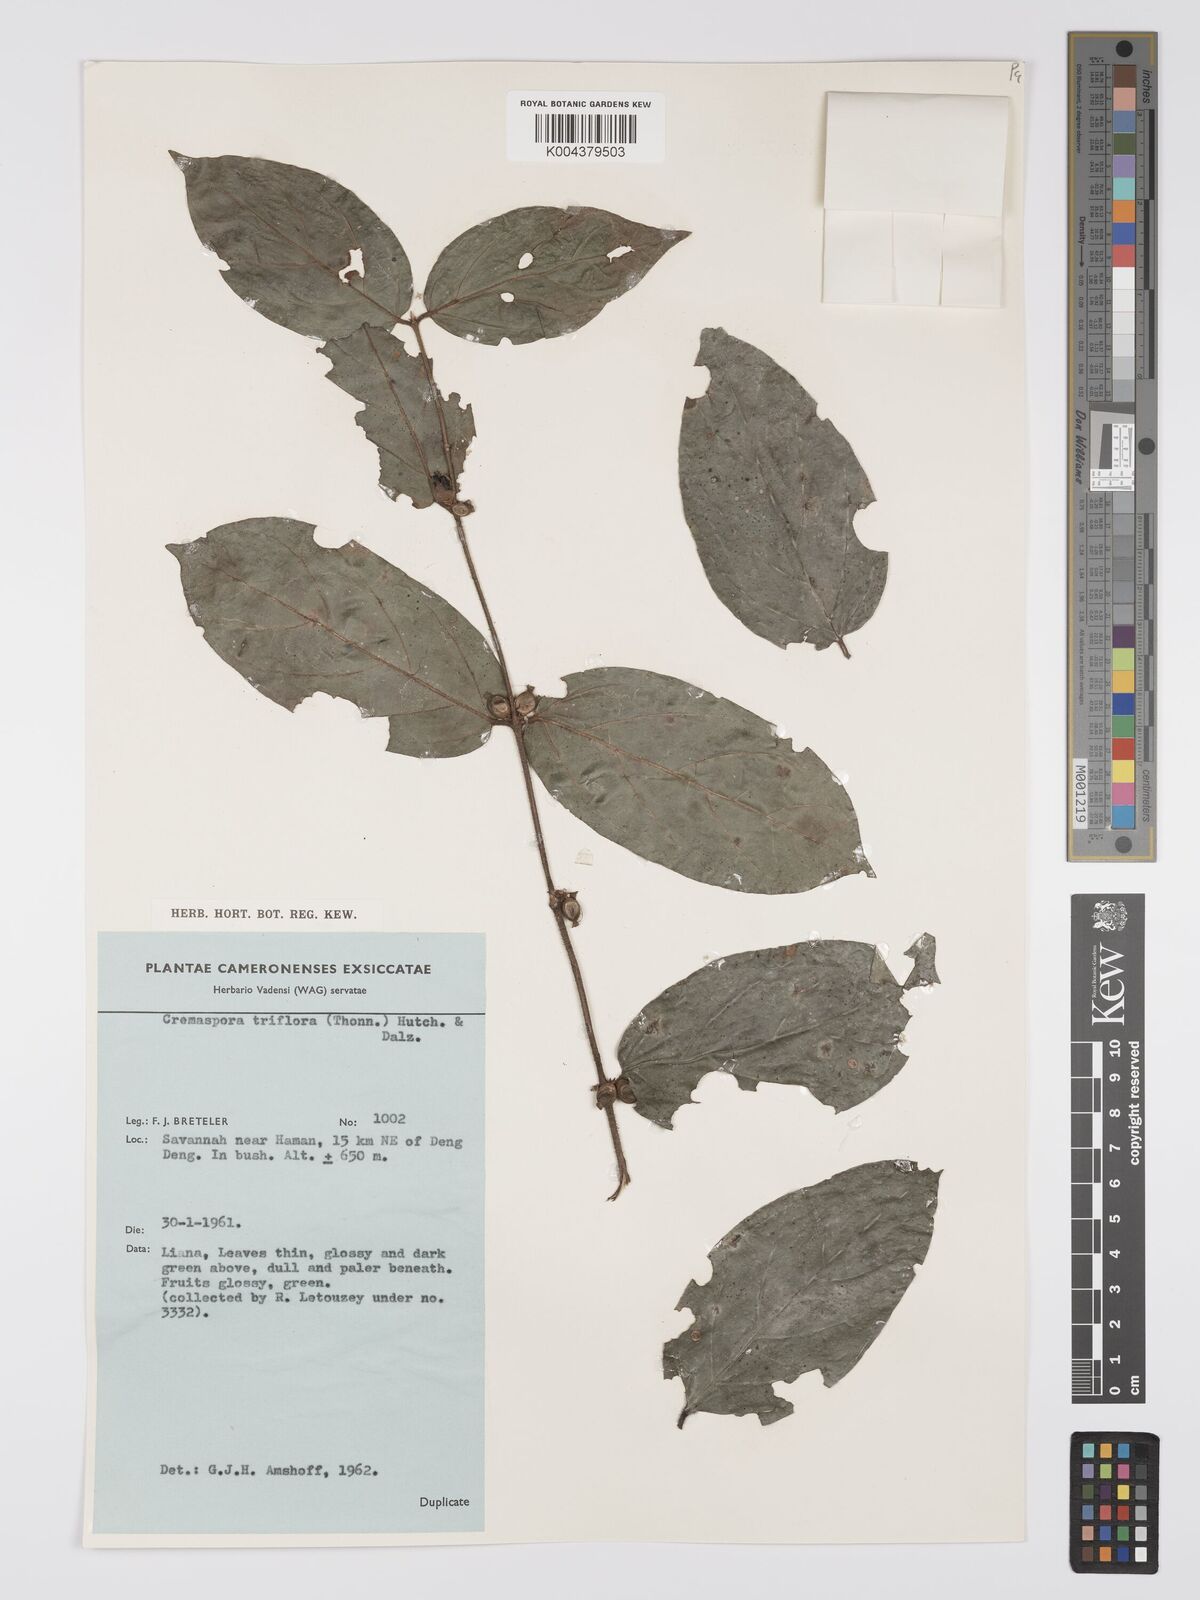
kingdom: Plantae
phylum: Tracheophyta
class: Magnoliopsida
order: Gentianales
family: Rubiaceae
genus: Cremaspora
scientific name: Cremaspora triflora
